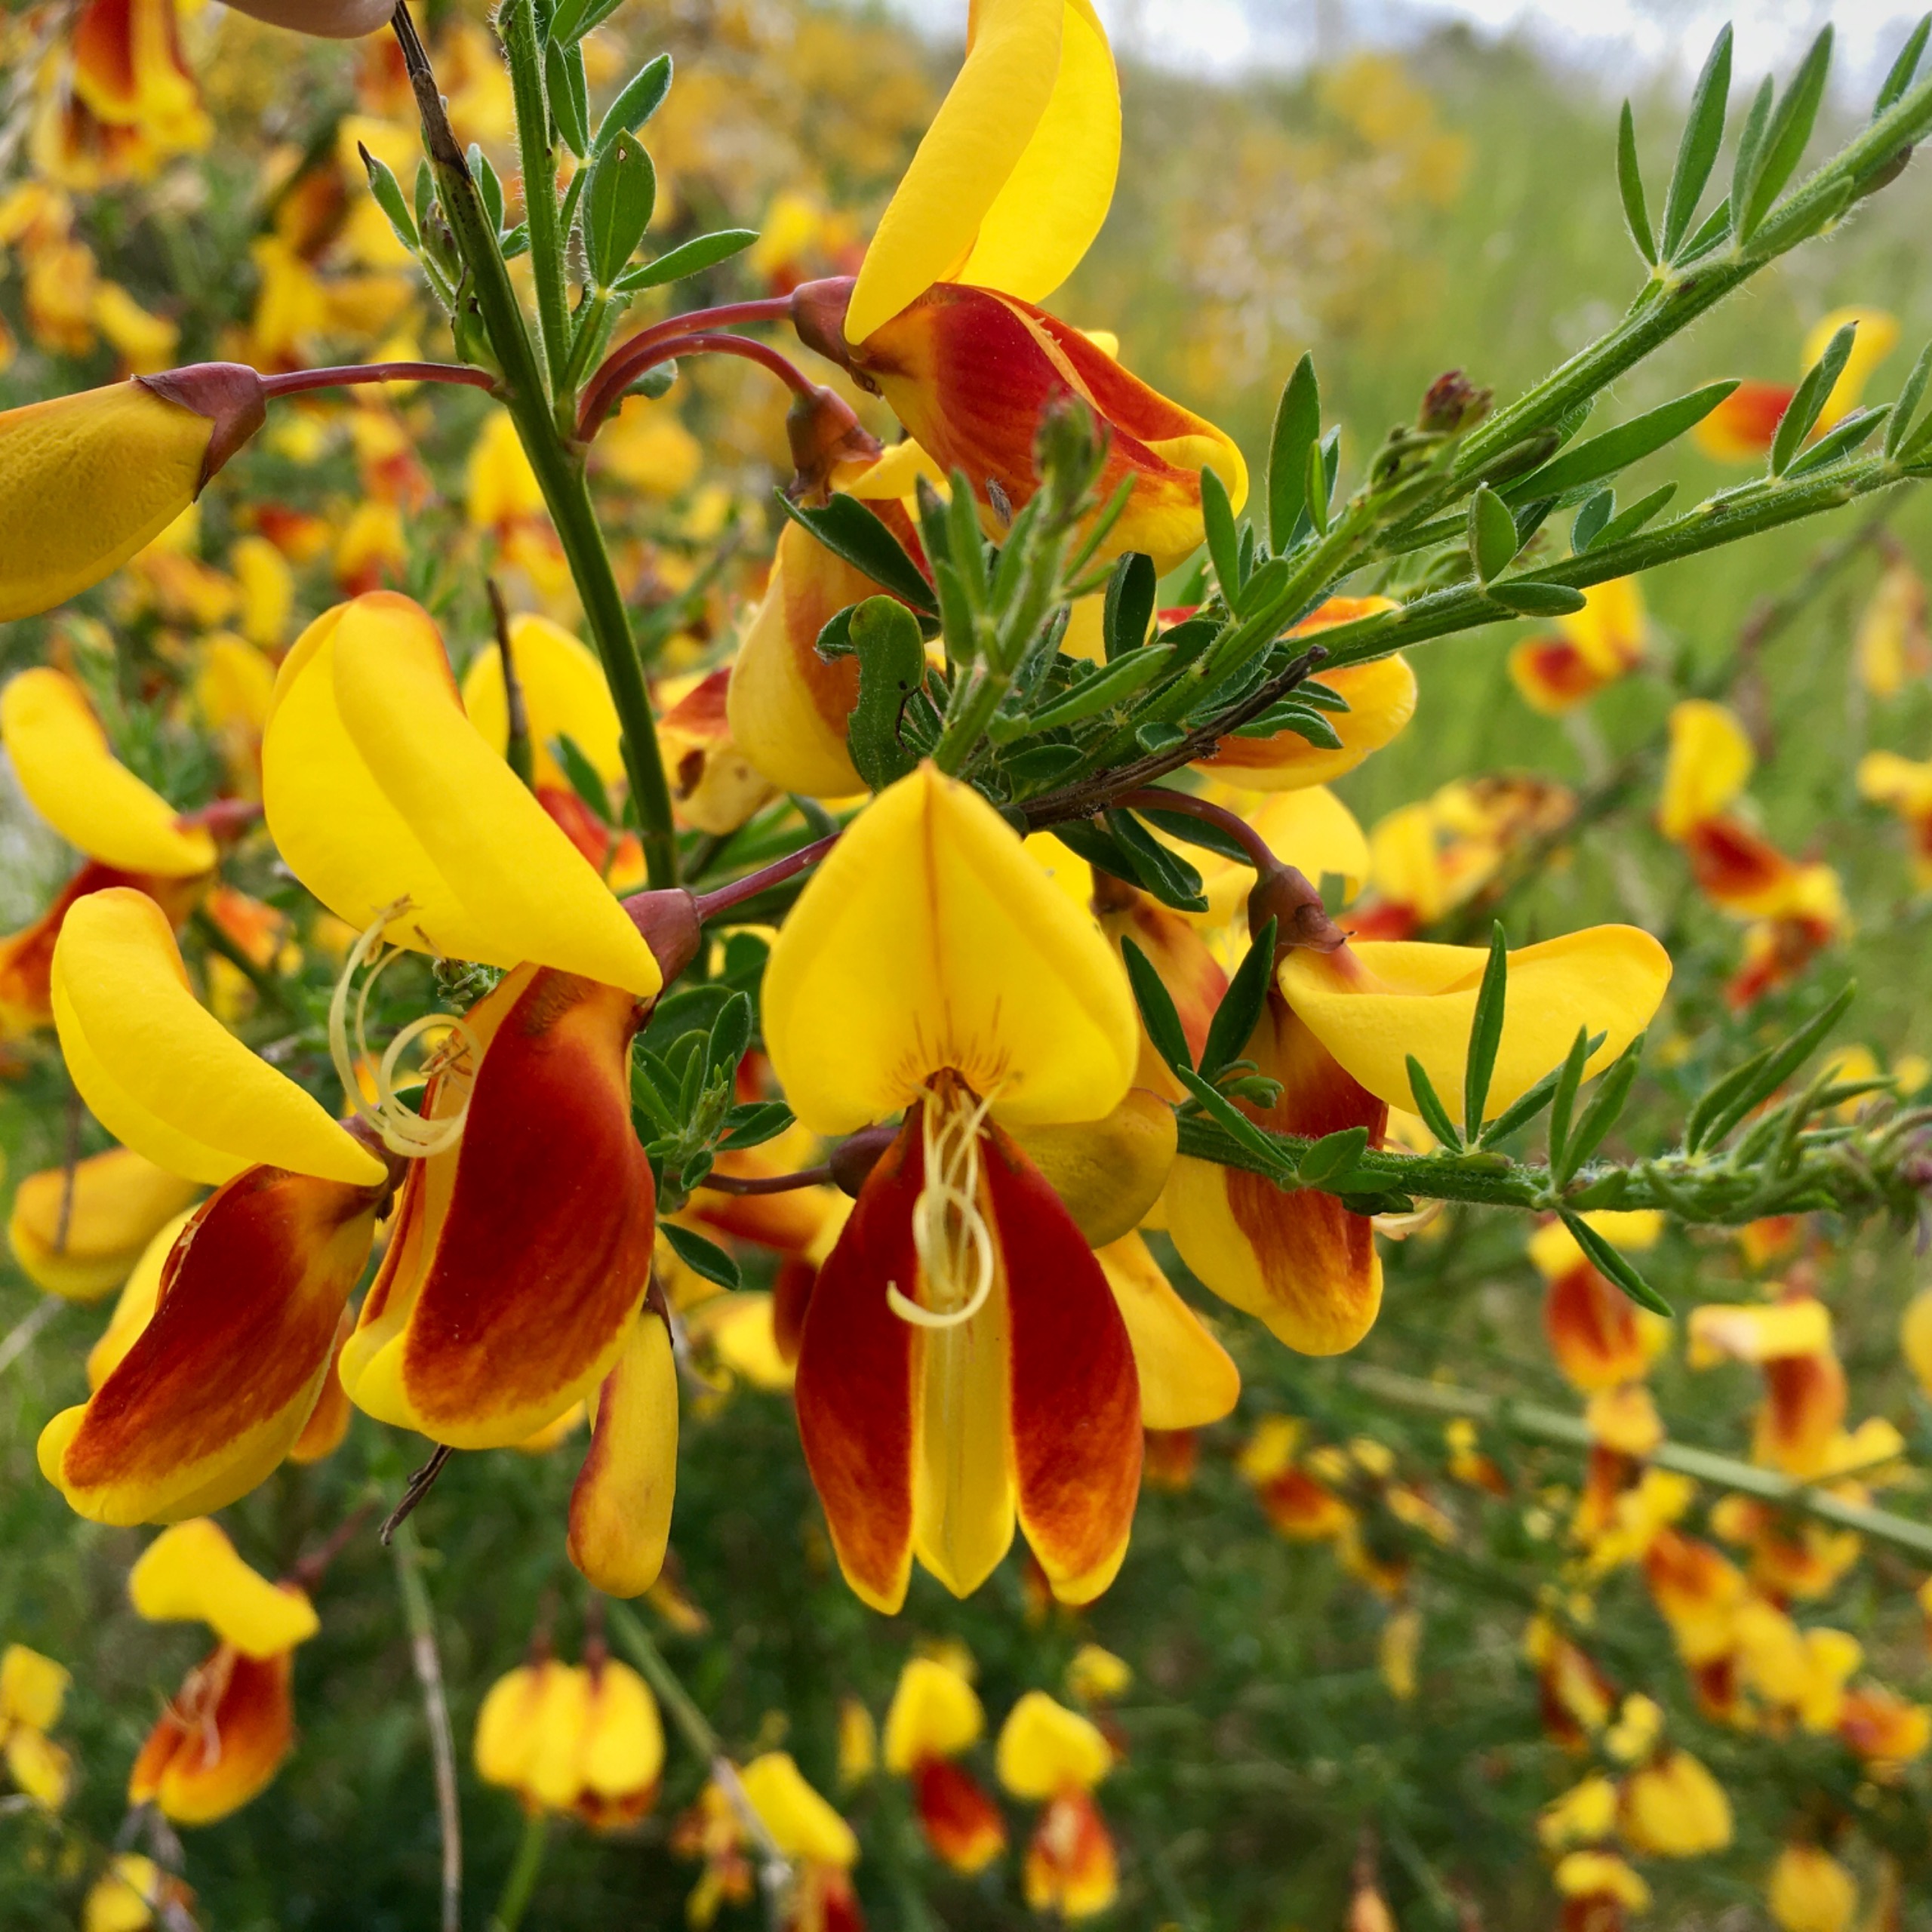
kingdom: Plantae
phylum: Tracheophyta
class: Magnoliopsida
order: Fabales
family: Fabaceae
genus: Cytisus
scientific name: Cytisus scoparius
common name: Almindelig gyvel
